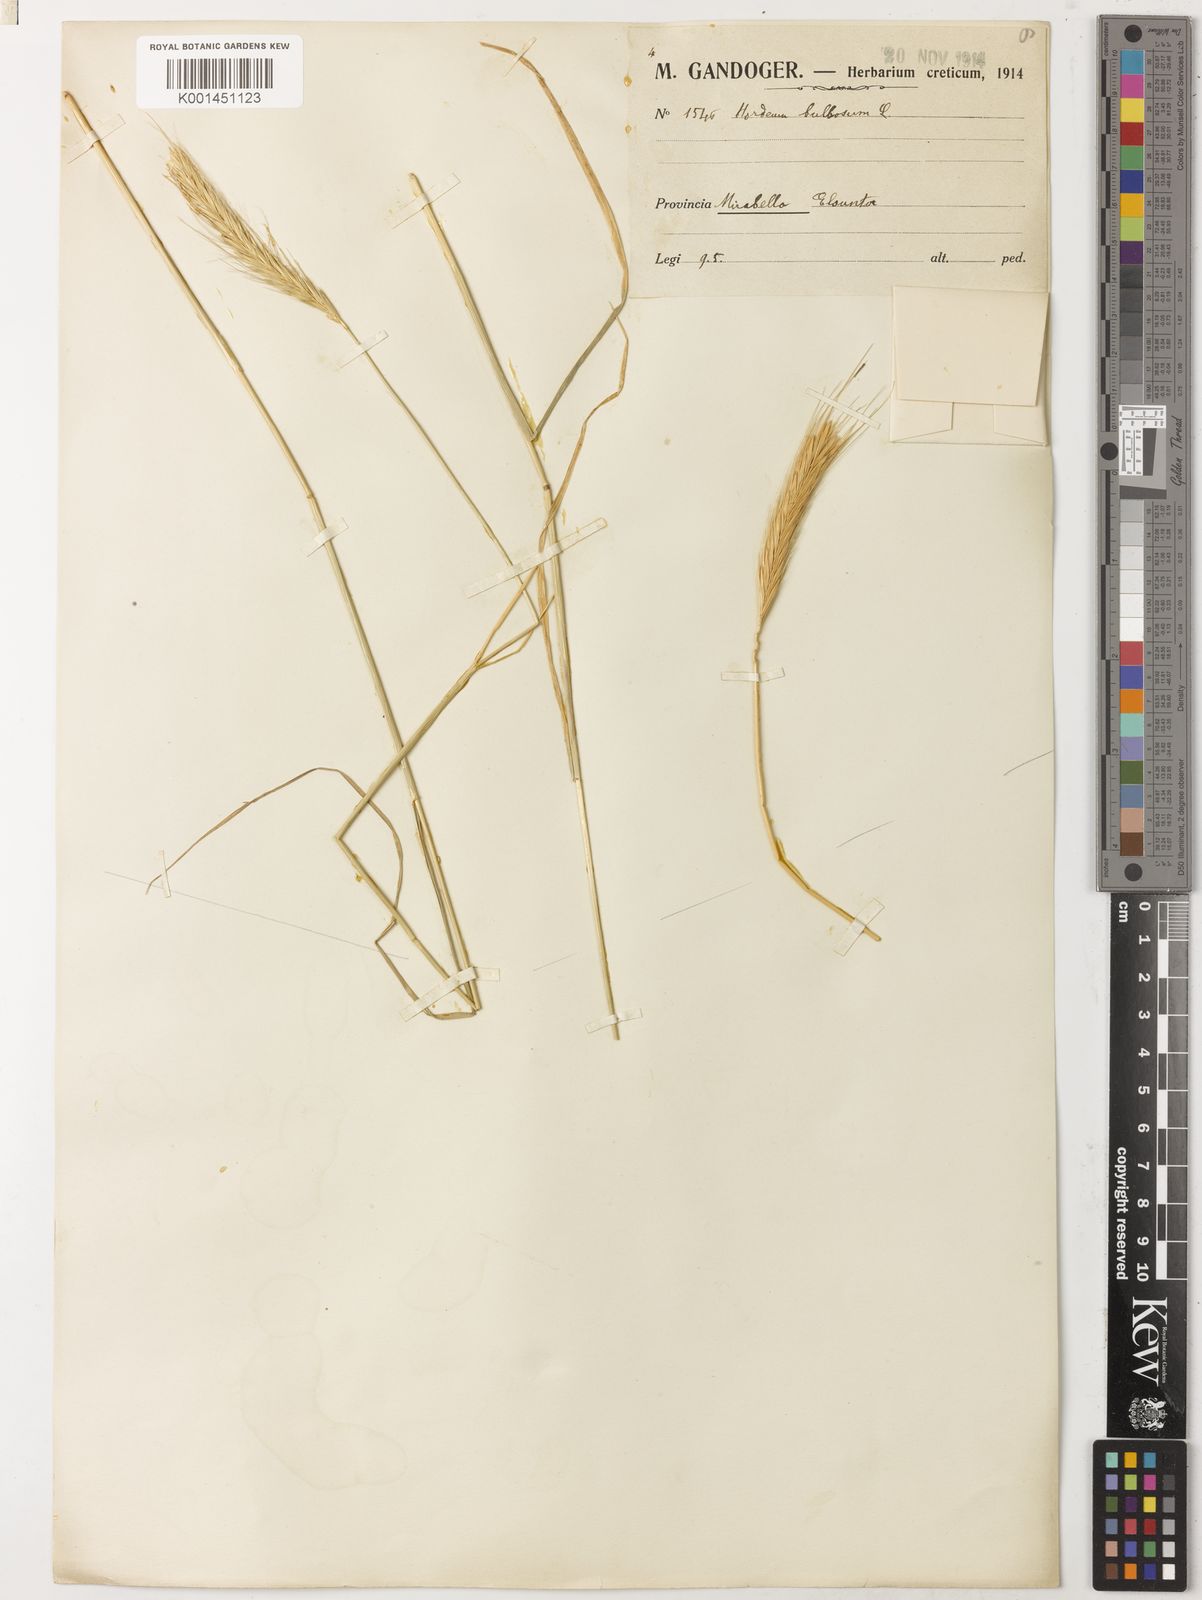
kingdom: Plantae
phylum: Tracheophyta
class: Liliopsida
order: Poales
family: Poaceae
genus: Hordeum
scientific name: Hordeum bulbosum
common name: Bulbous barley
